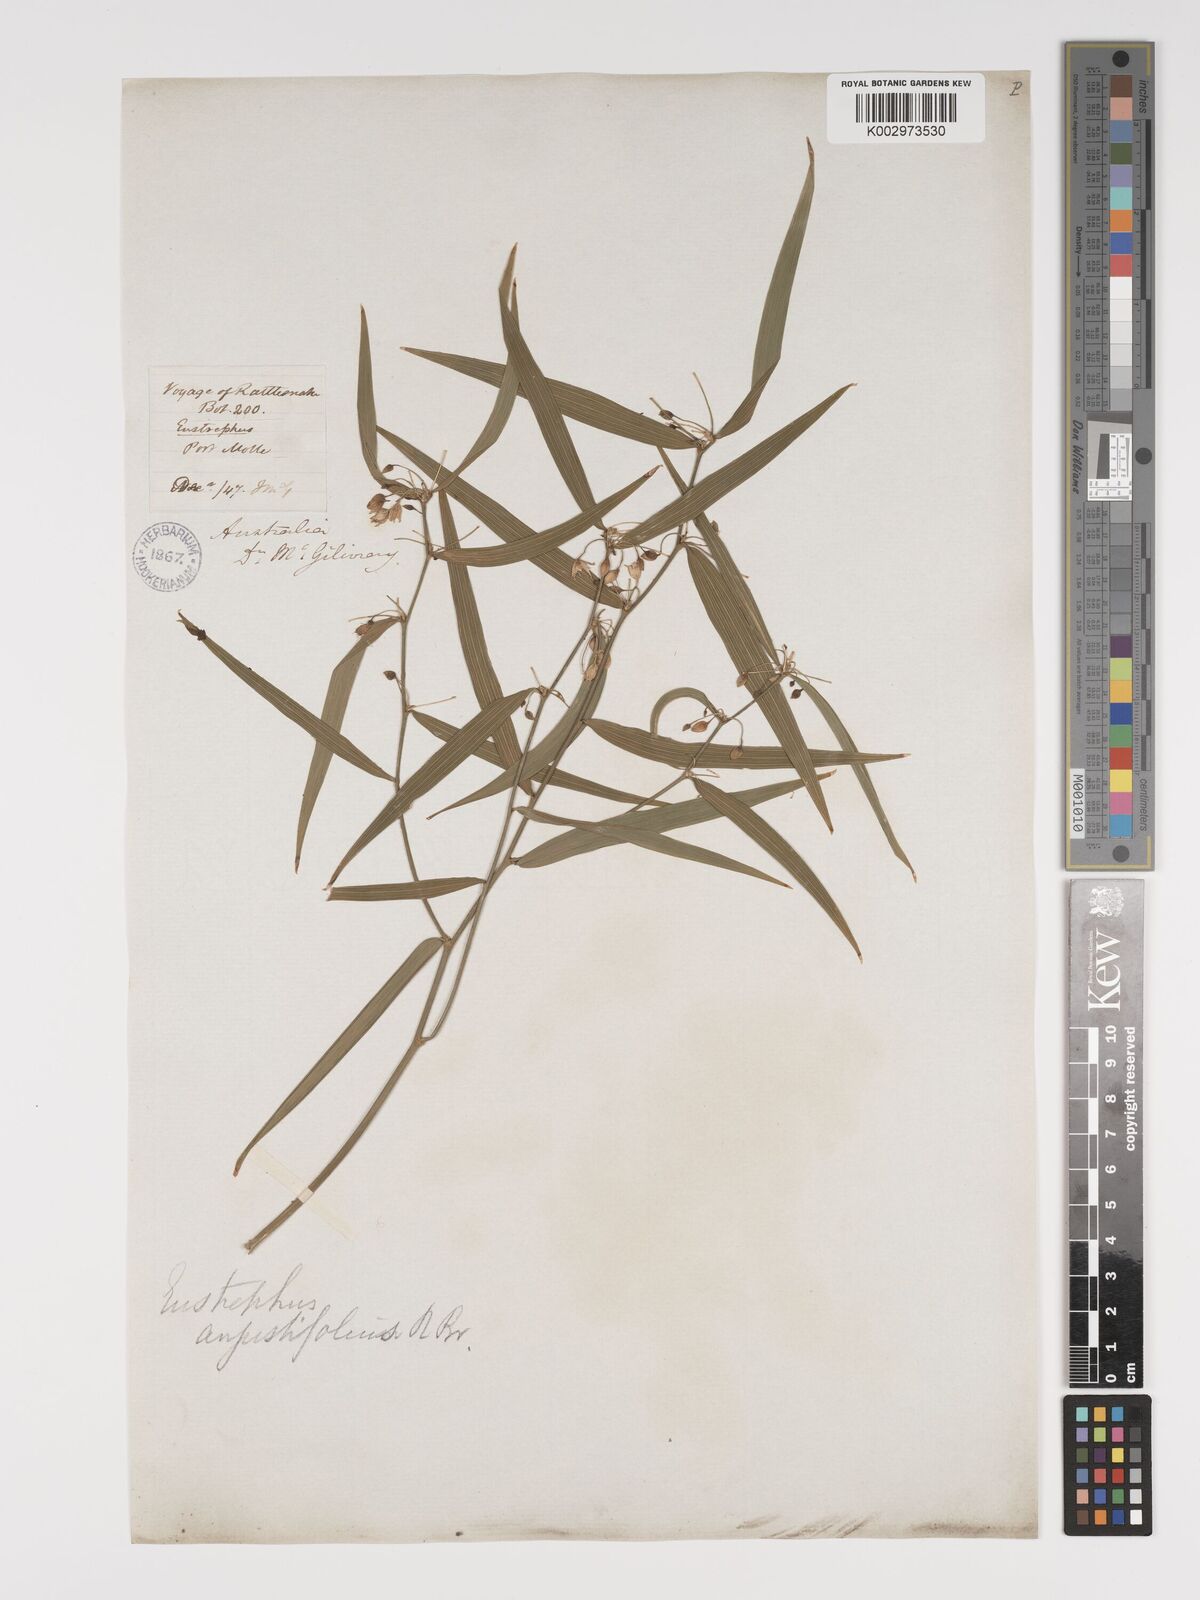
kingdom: Plantae
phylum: Tracheophyta
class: Liliopsida
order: Asparagales
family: Asparagaceae
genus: Eustrephus
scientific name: Eustrephus latifolius
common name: Orangevine
